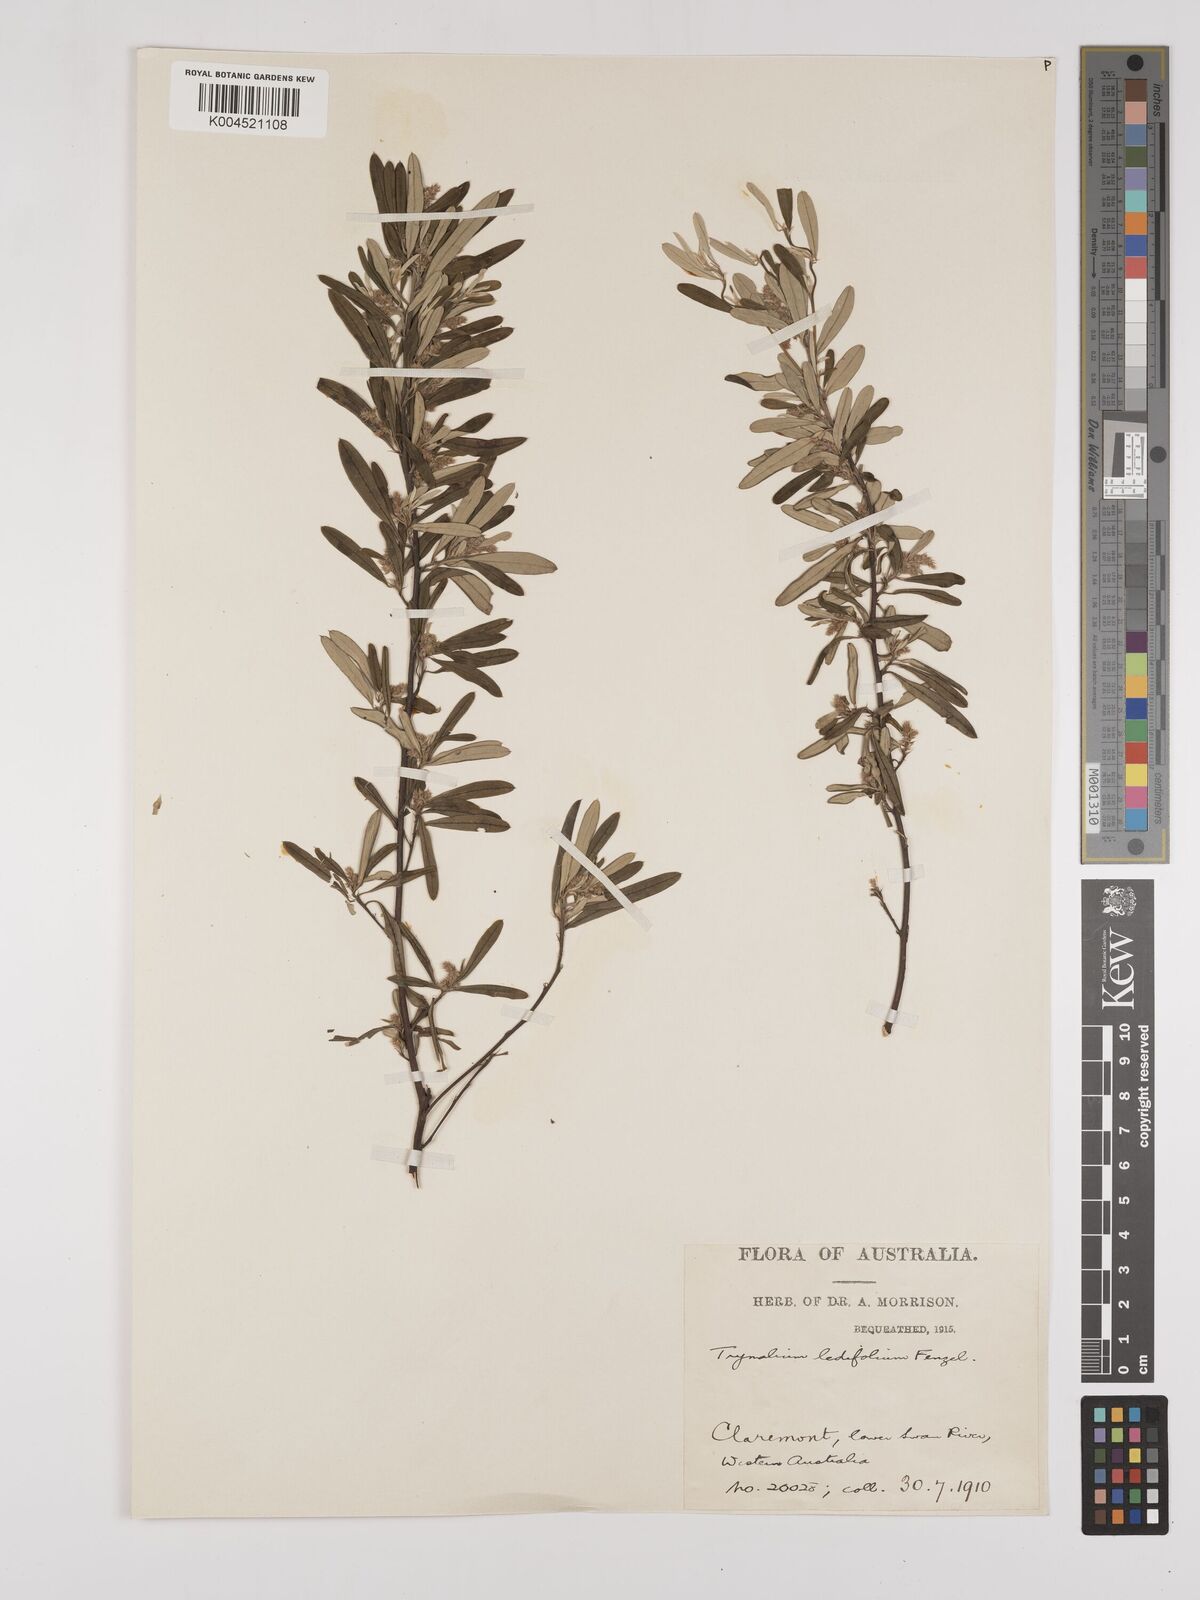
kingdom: Plantae
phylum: Tracheophyta
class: Magnoliopsida
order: Rosales
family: Rhamnaceae
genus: Trymalium
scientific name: Trymalium ledifolium
